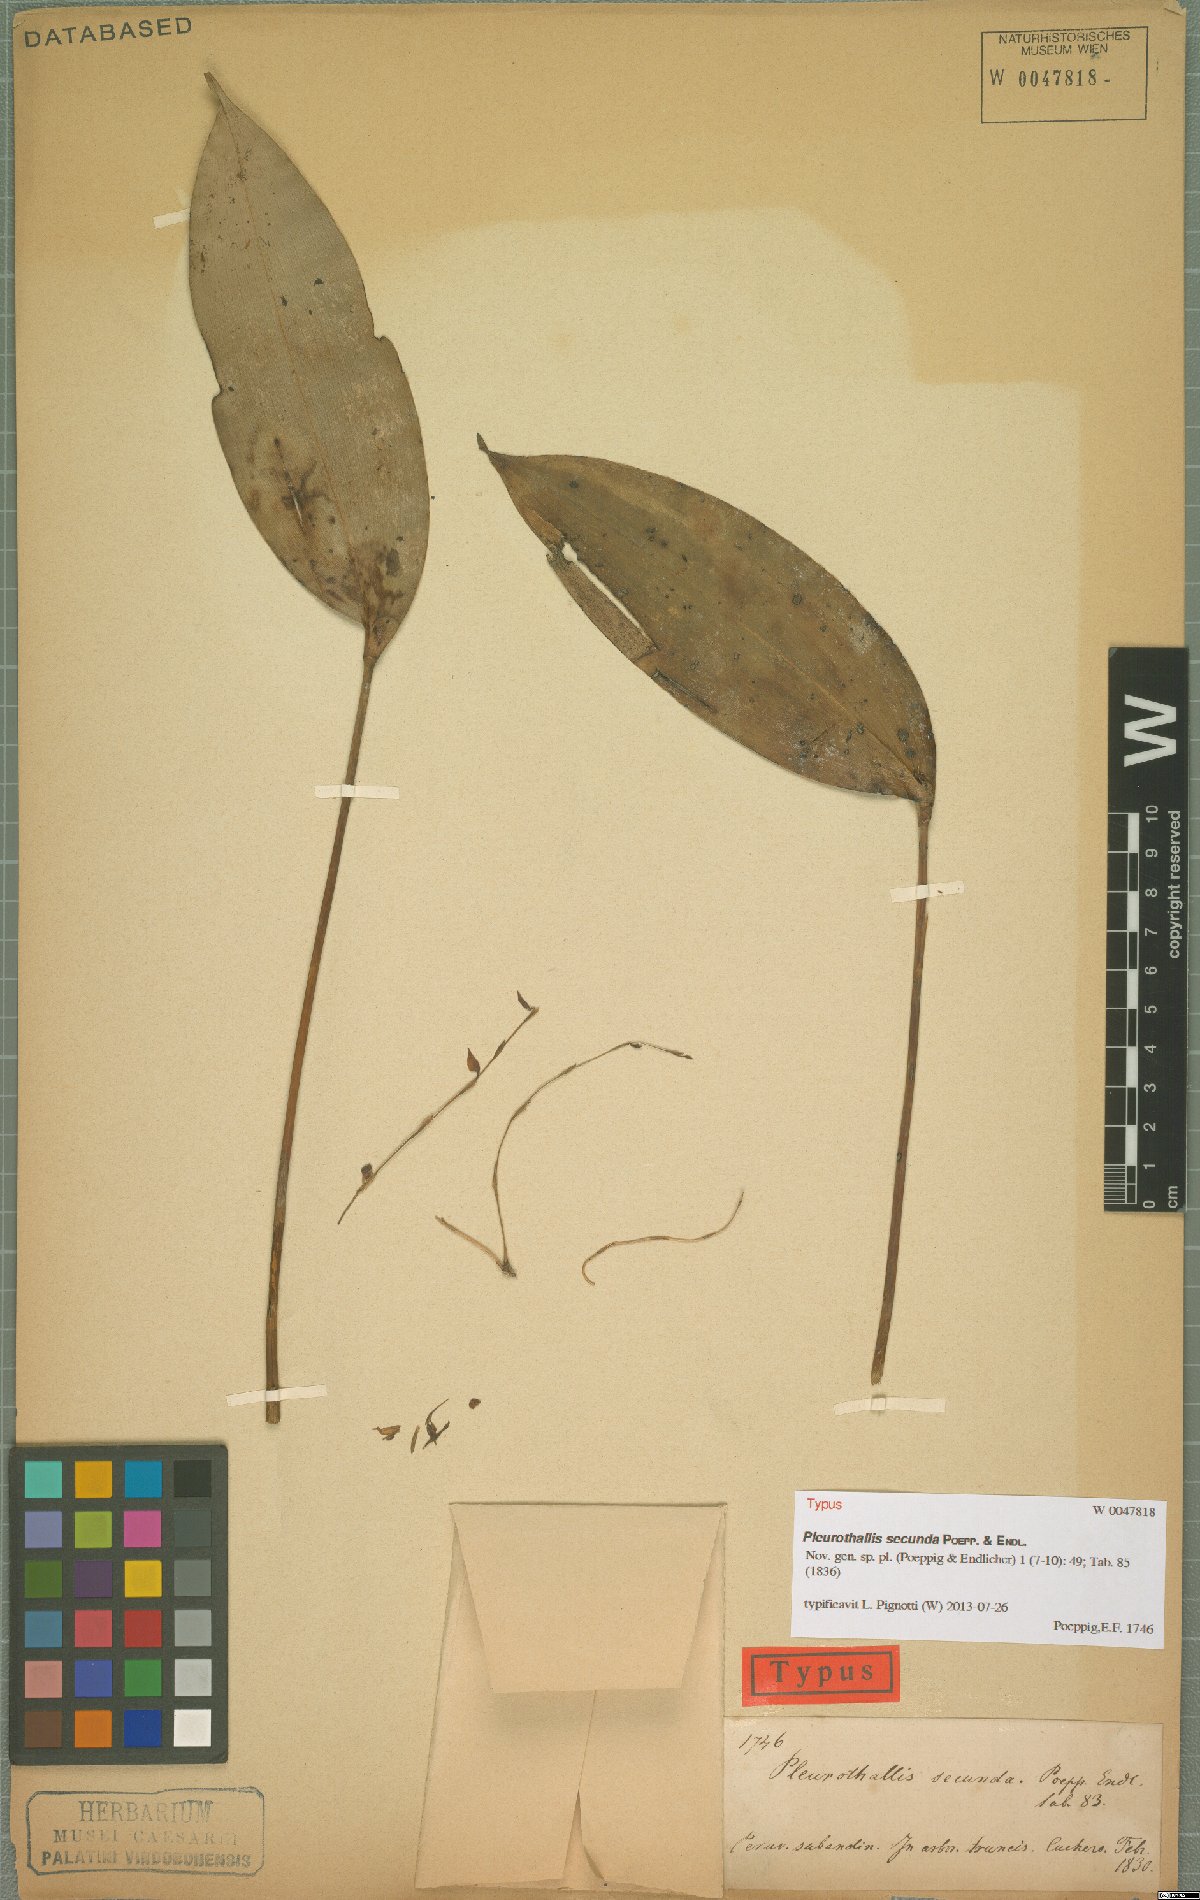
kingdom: Plantae
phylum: Tracheophyta
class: Liliopsida
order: Asparagales
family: Orchidaceae
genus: Pleurothallis
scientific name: Pleurothallis secunda
